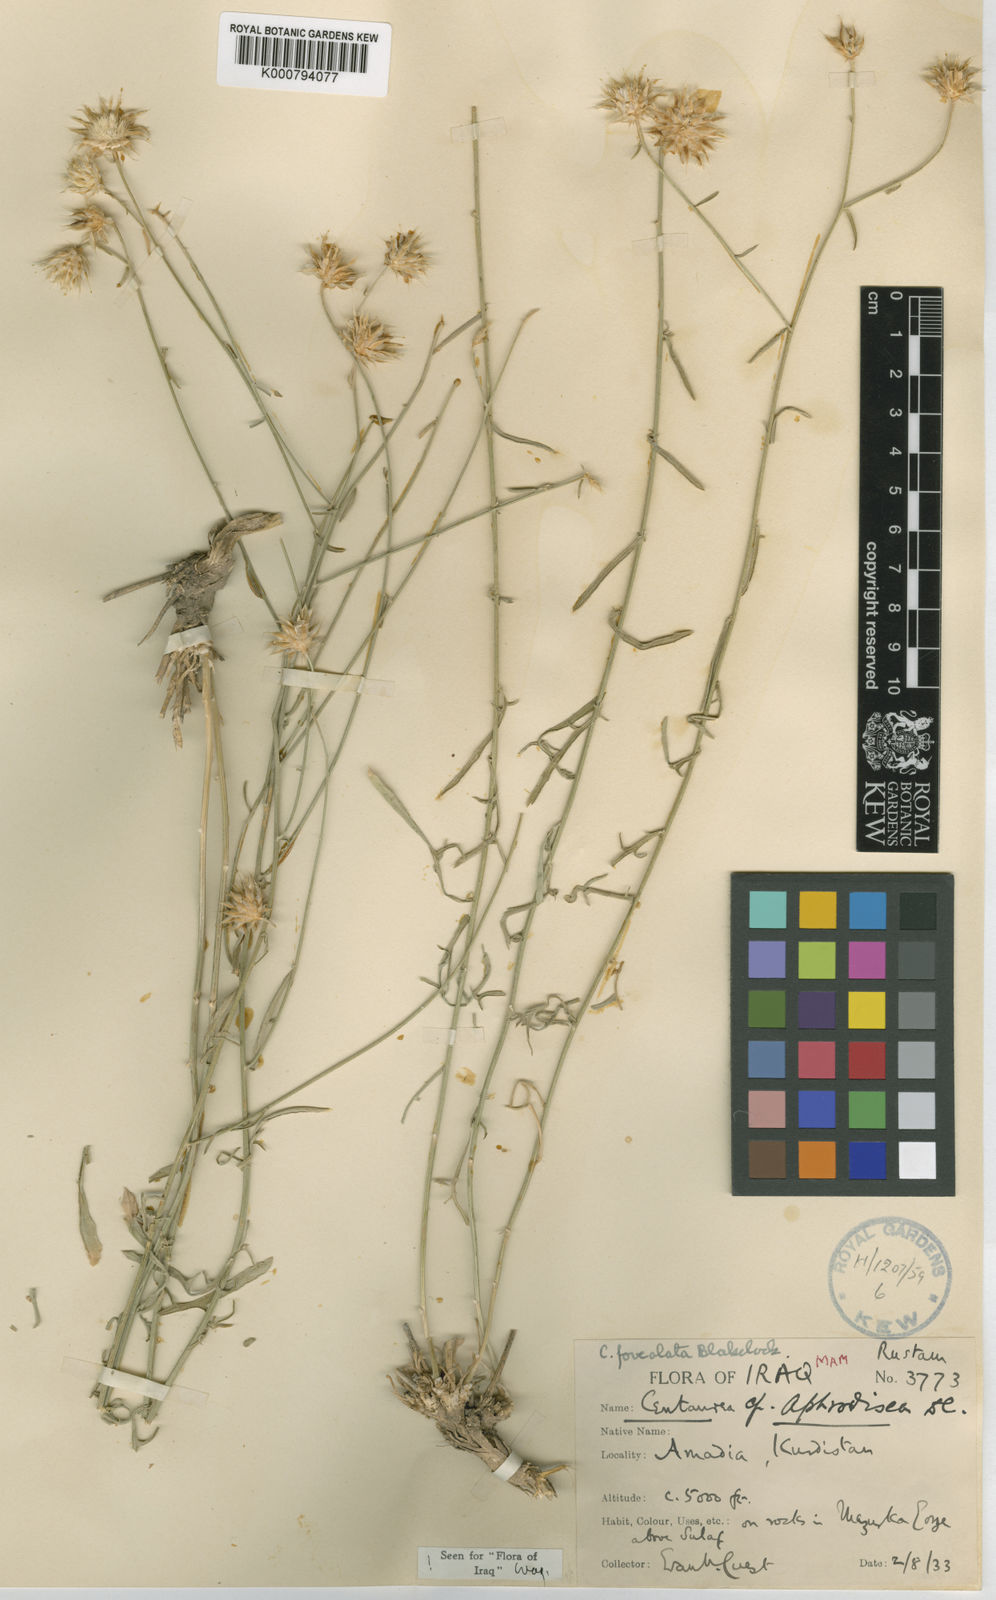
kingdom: Plantae
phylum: Tracheophyta
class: Magnoliopsida
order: Asterales
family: Asteraceae
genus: Centaurea
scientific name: Centaurea foveolata
